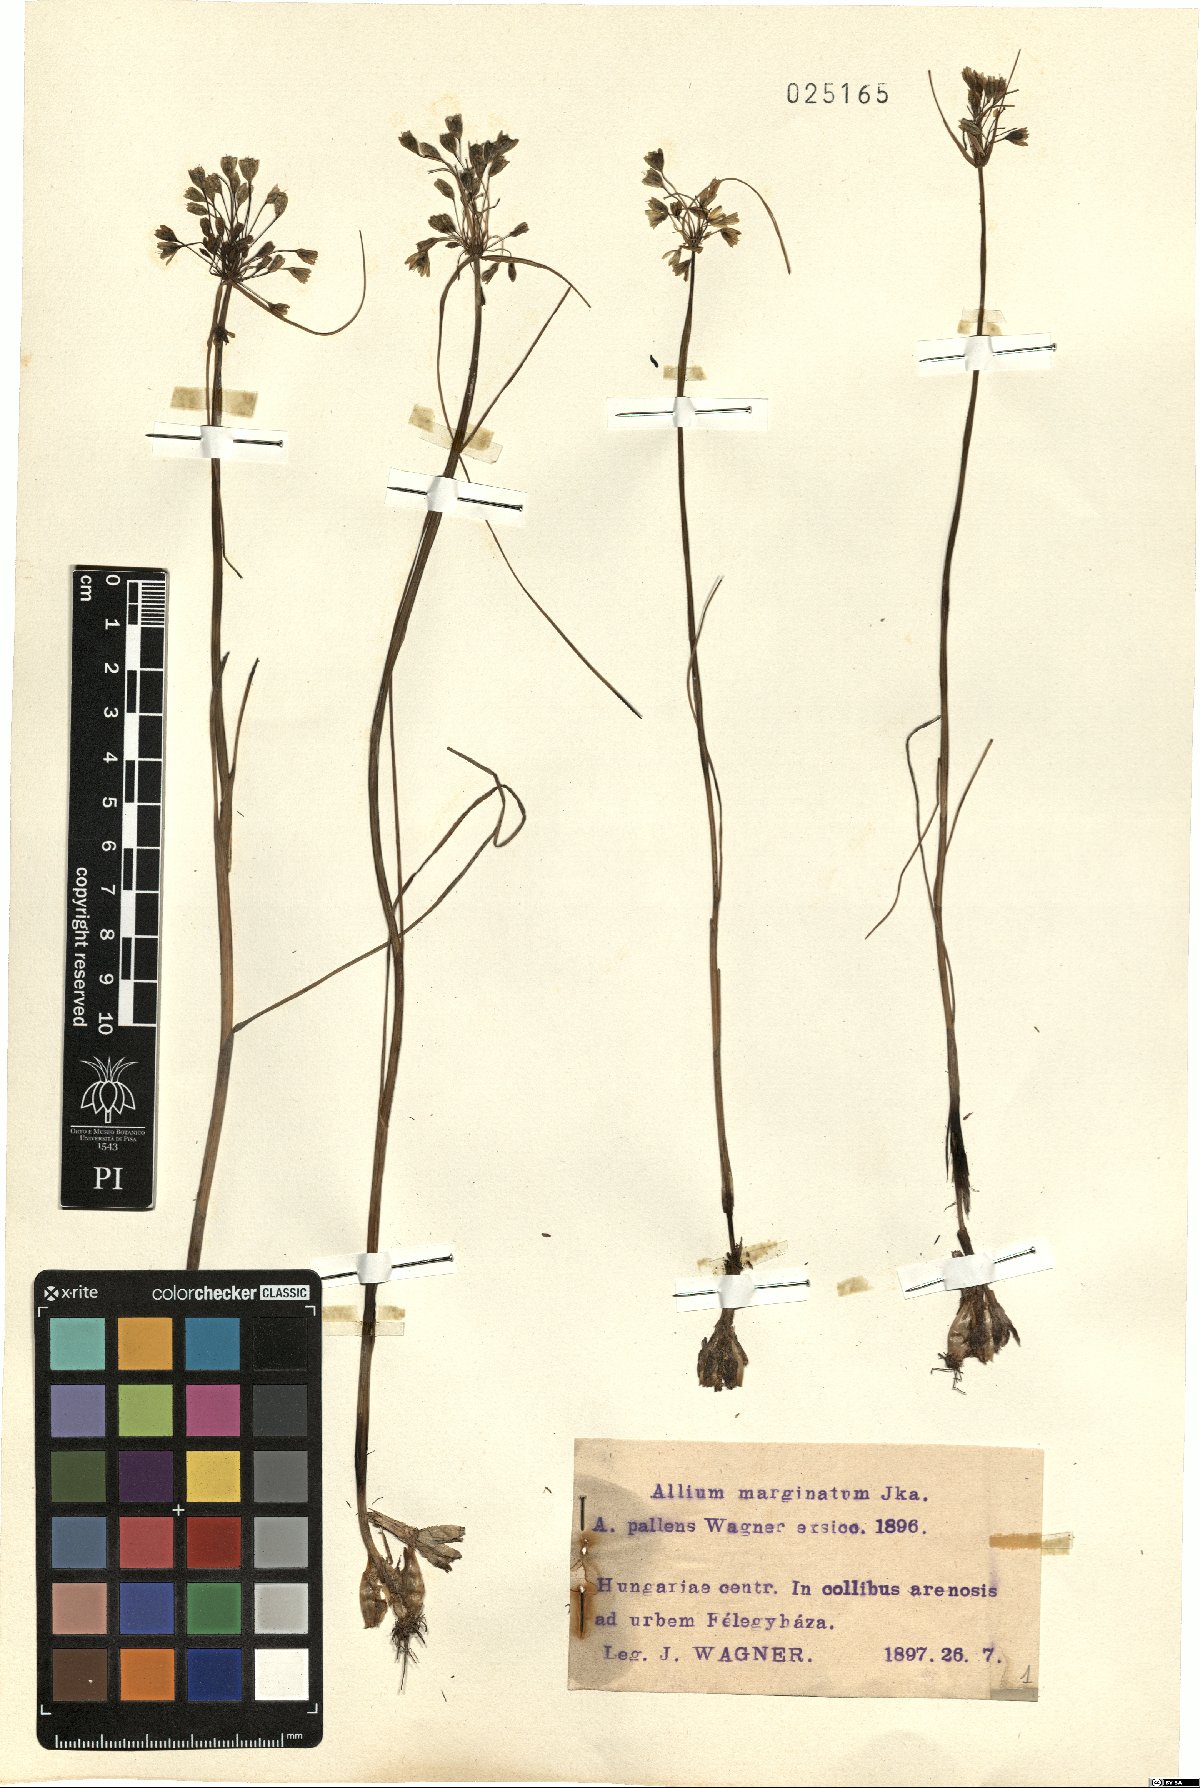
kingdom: Plantae
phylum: Tracheophyta
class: Liliopsida
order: Asparagales
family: Amaryllidaceae
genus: Allium
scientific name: Allium marginatum
